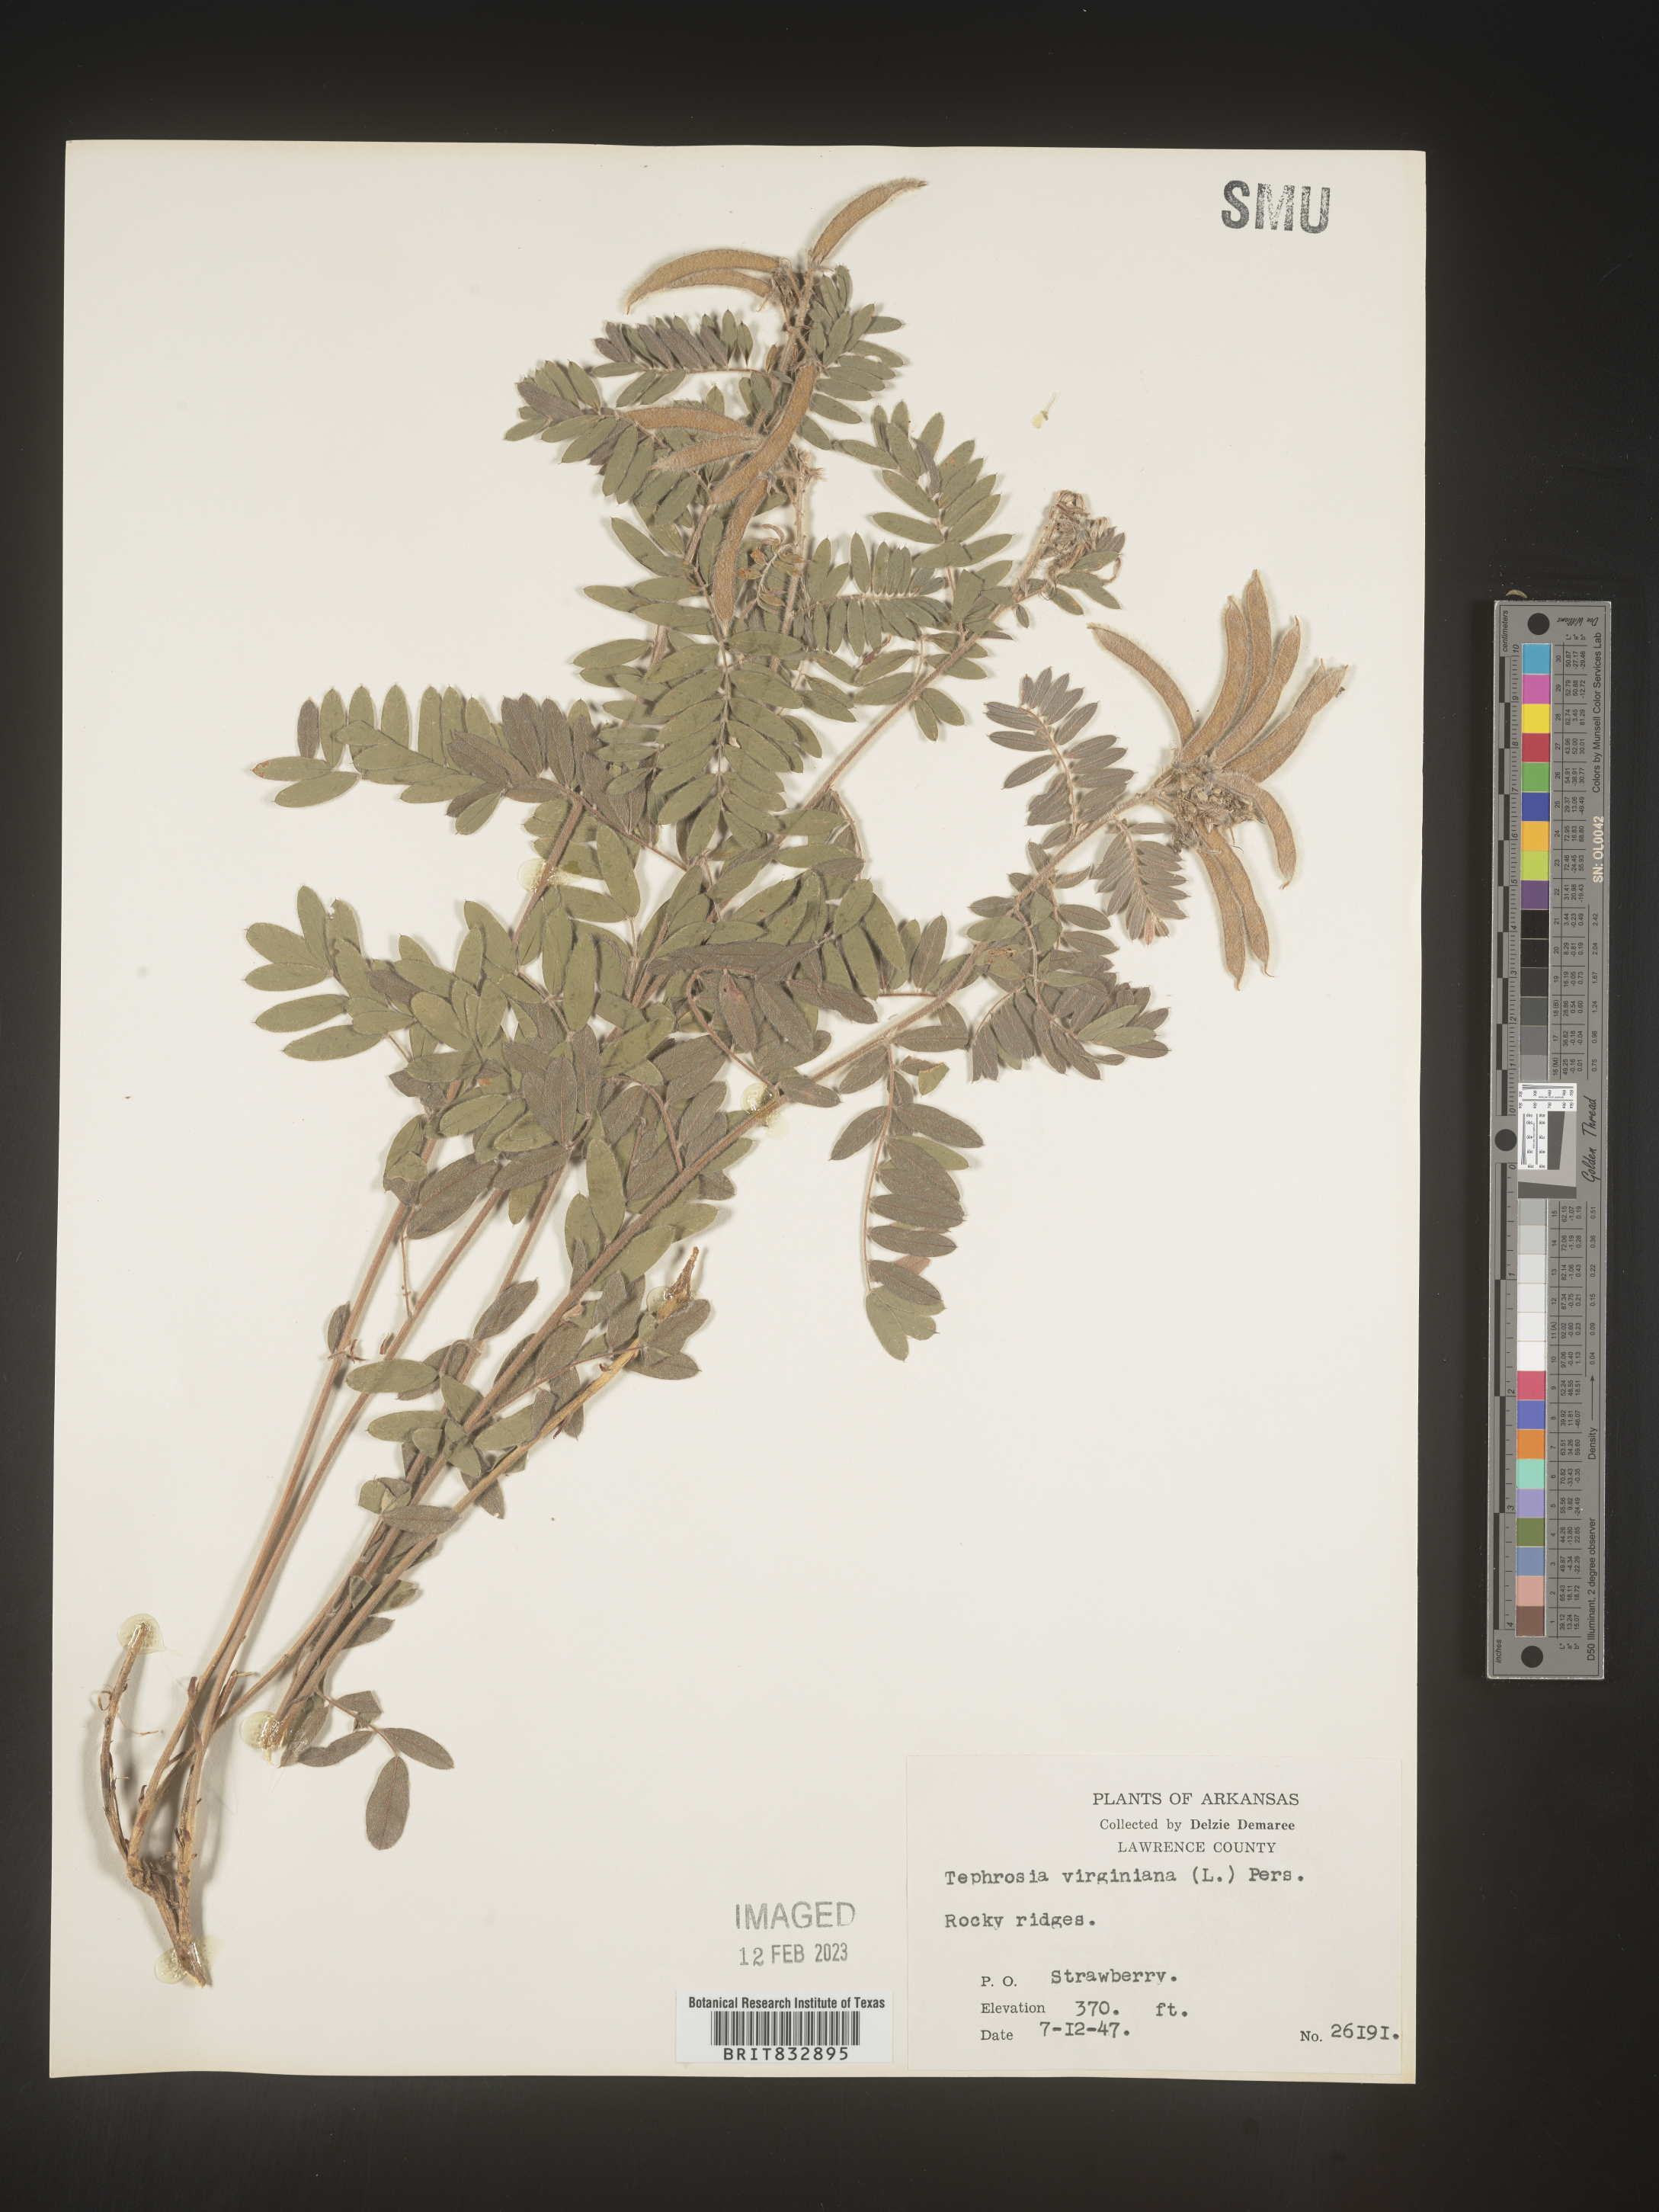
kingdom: Plantae
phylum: Tracheophyta
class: Magnoliopsida
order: Fabales
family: Fabaceae
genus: Tephrosia
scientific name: Tephrosia virginiana
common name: Rabbit-pea
